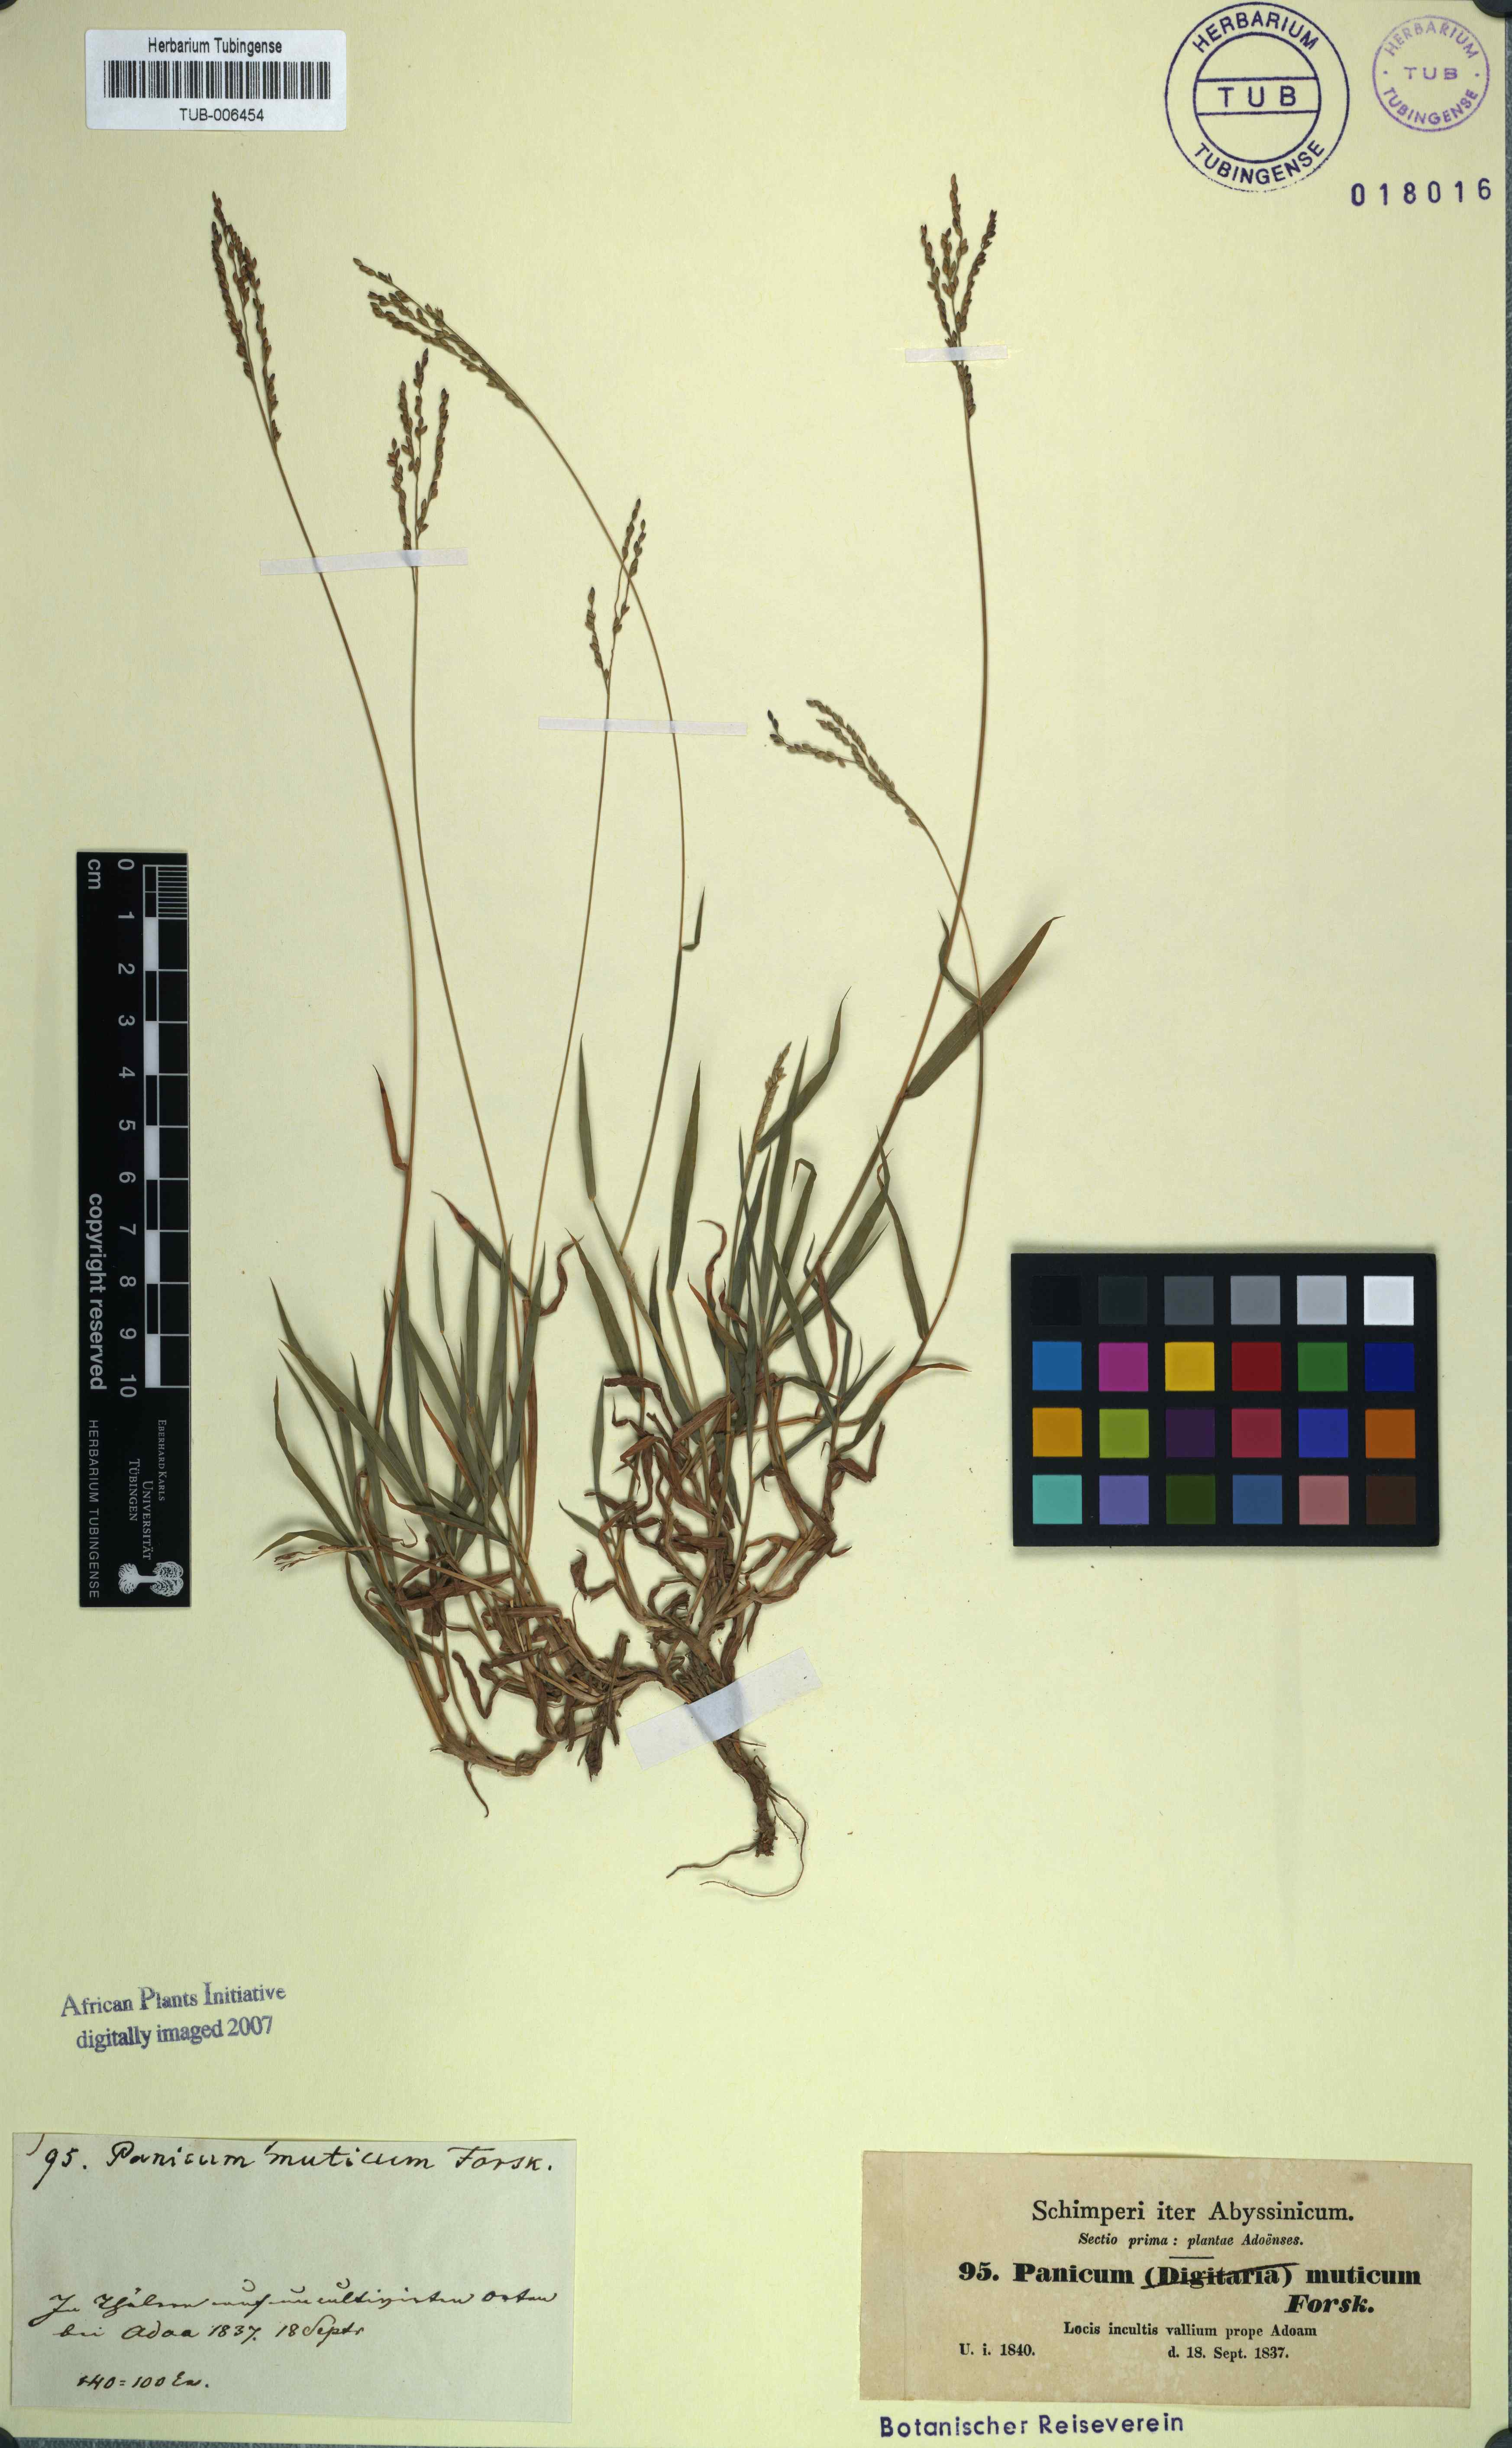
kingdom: Plantae
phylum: Tracheophyta
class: Liliopsida
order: Poales
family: Poaceae
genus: Urochloa
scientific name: Urochloa mutica
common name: Para grass
